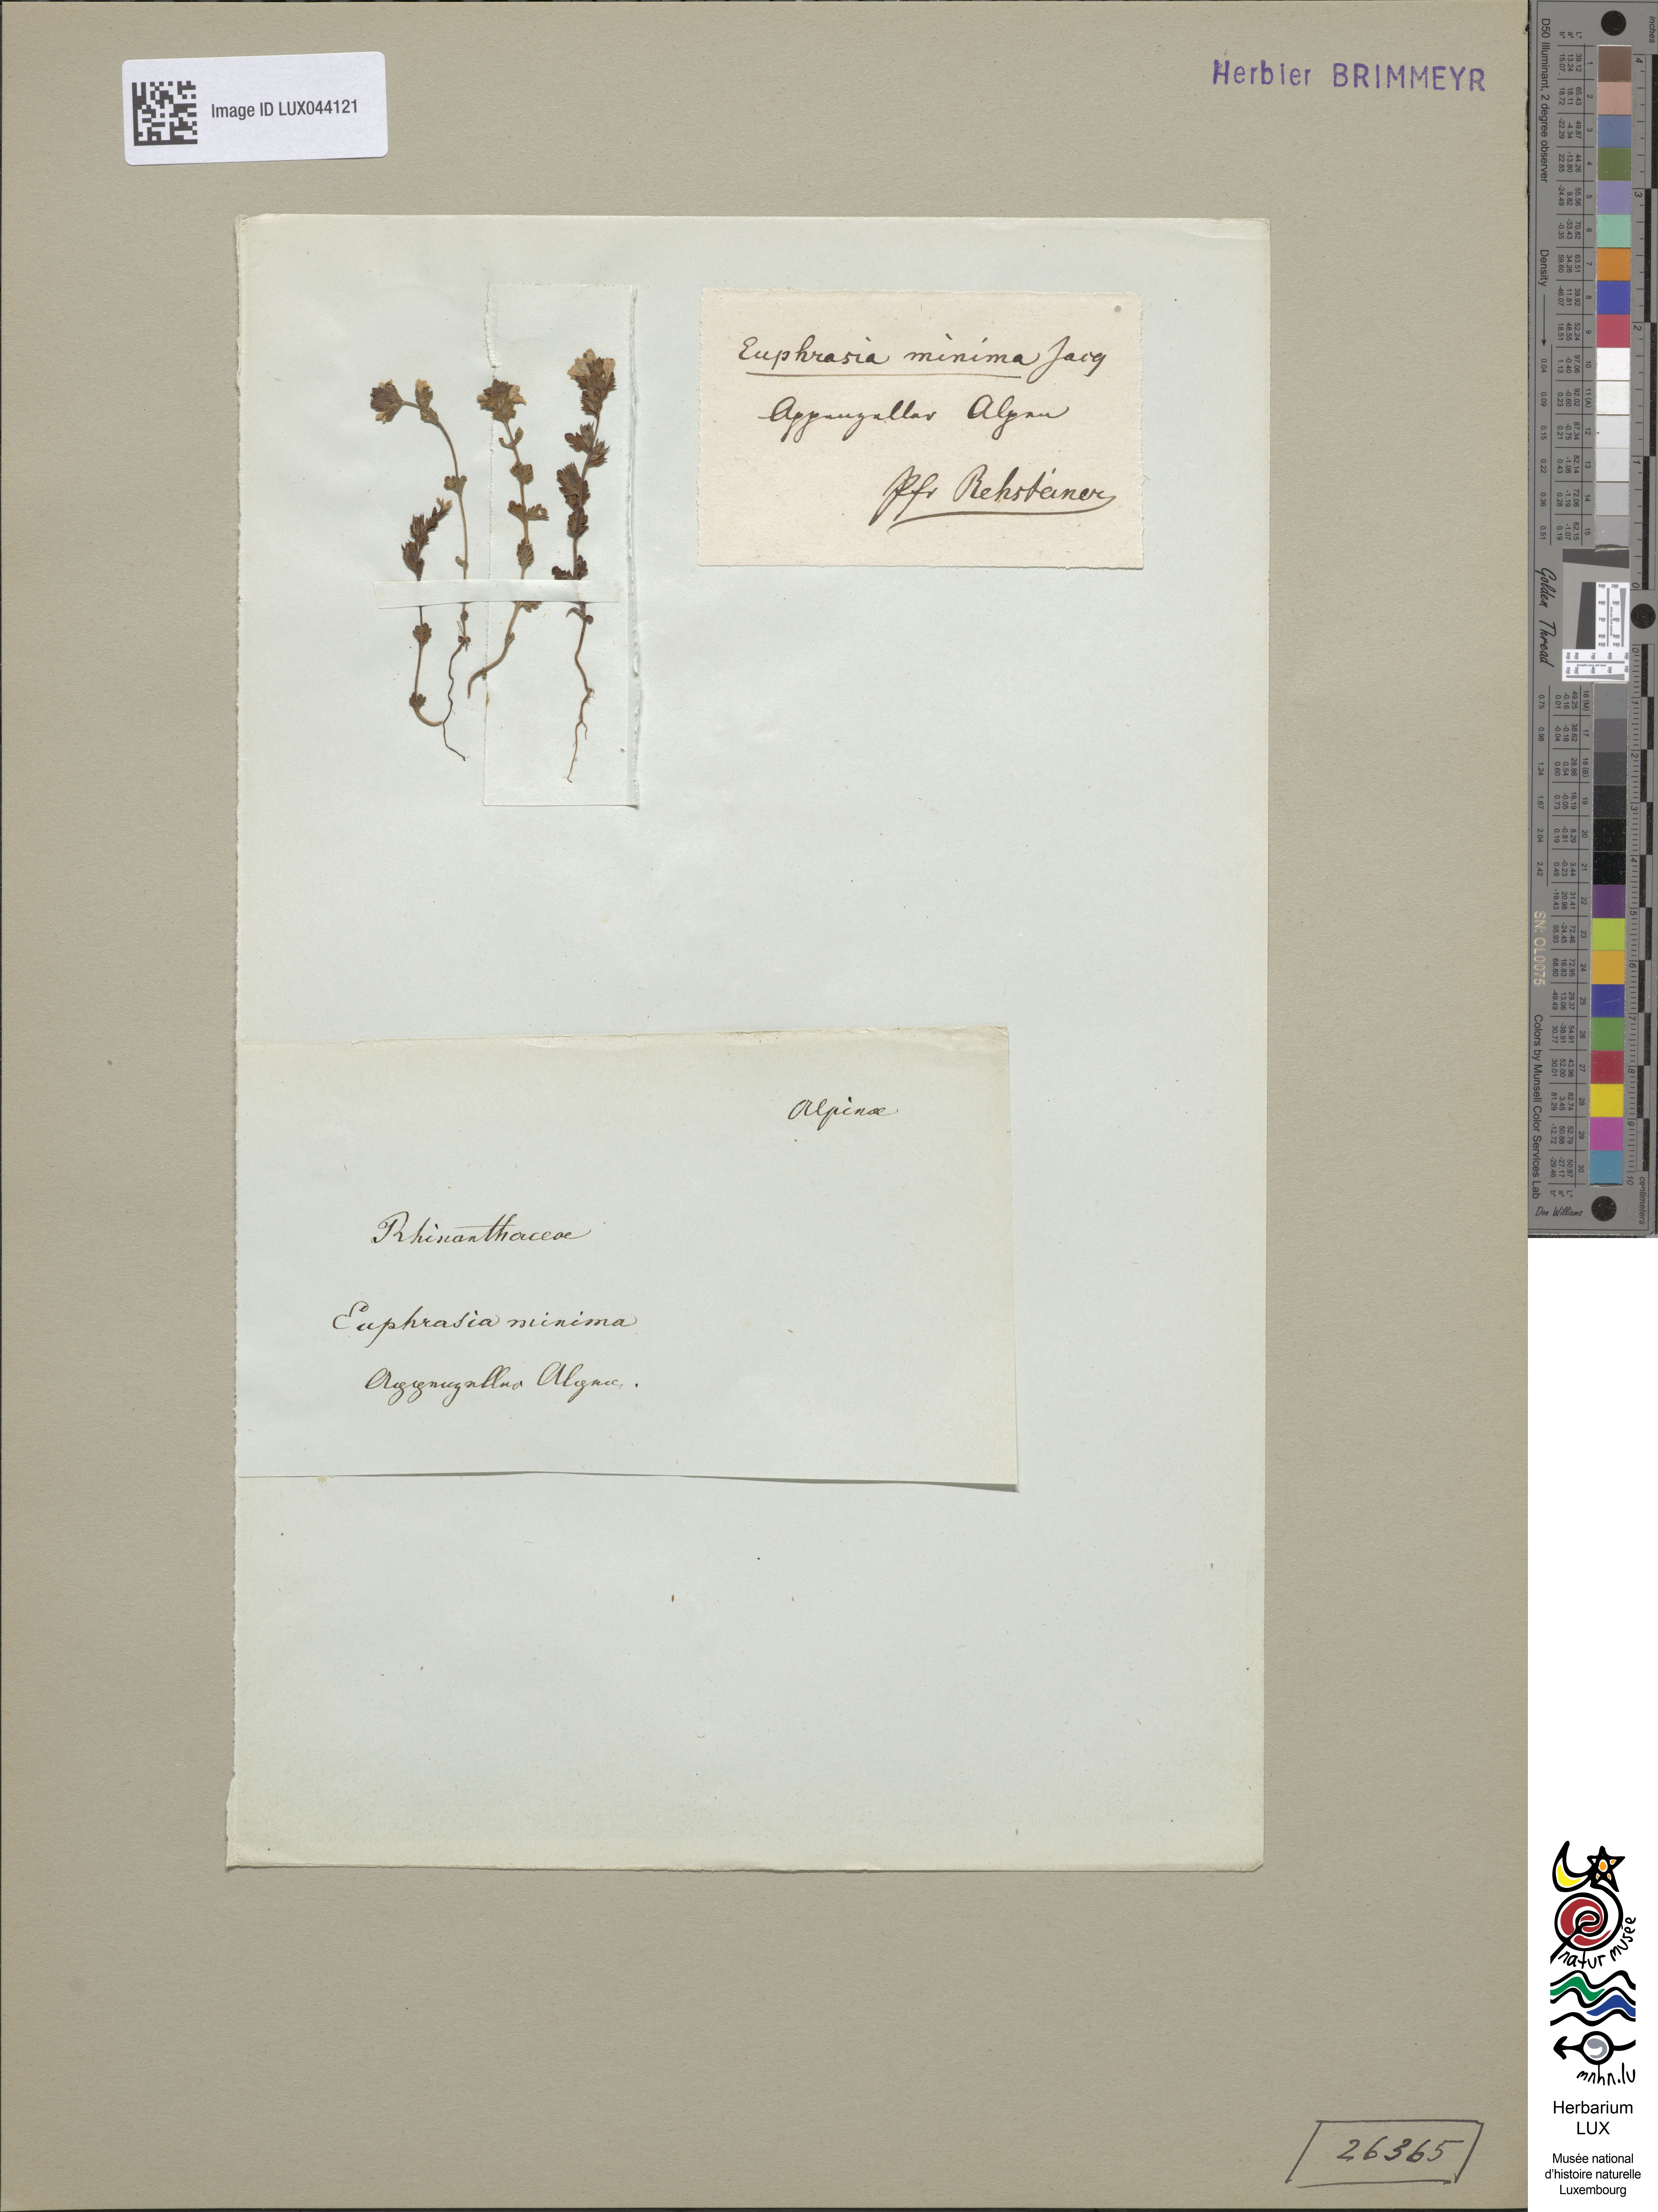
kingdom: Plantae
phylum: Tracheophyta
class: Magnoliopsida
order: Lamiales
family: Orobanchaceae
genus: Euphrasia
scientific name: Euphrasia minima
